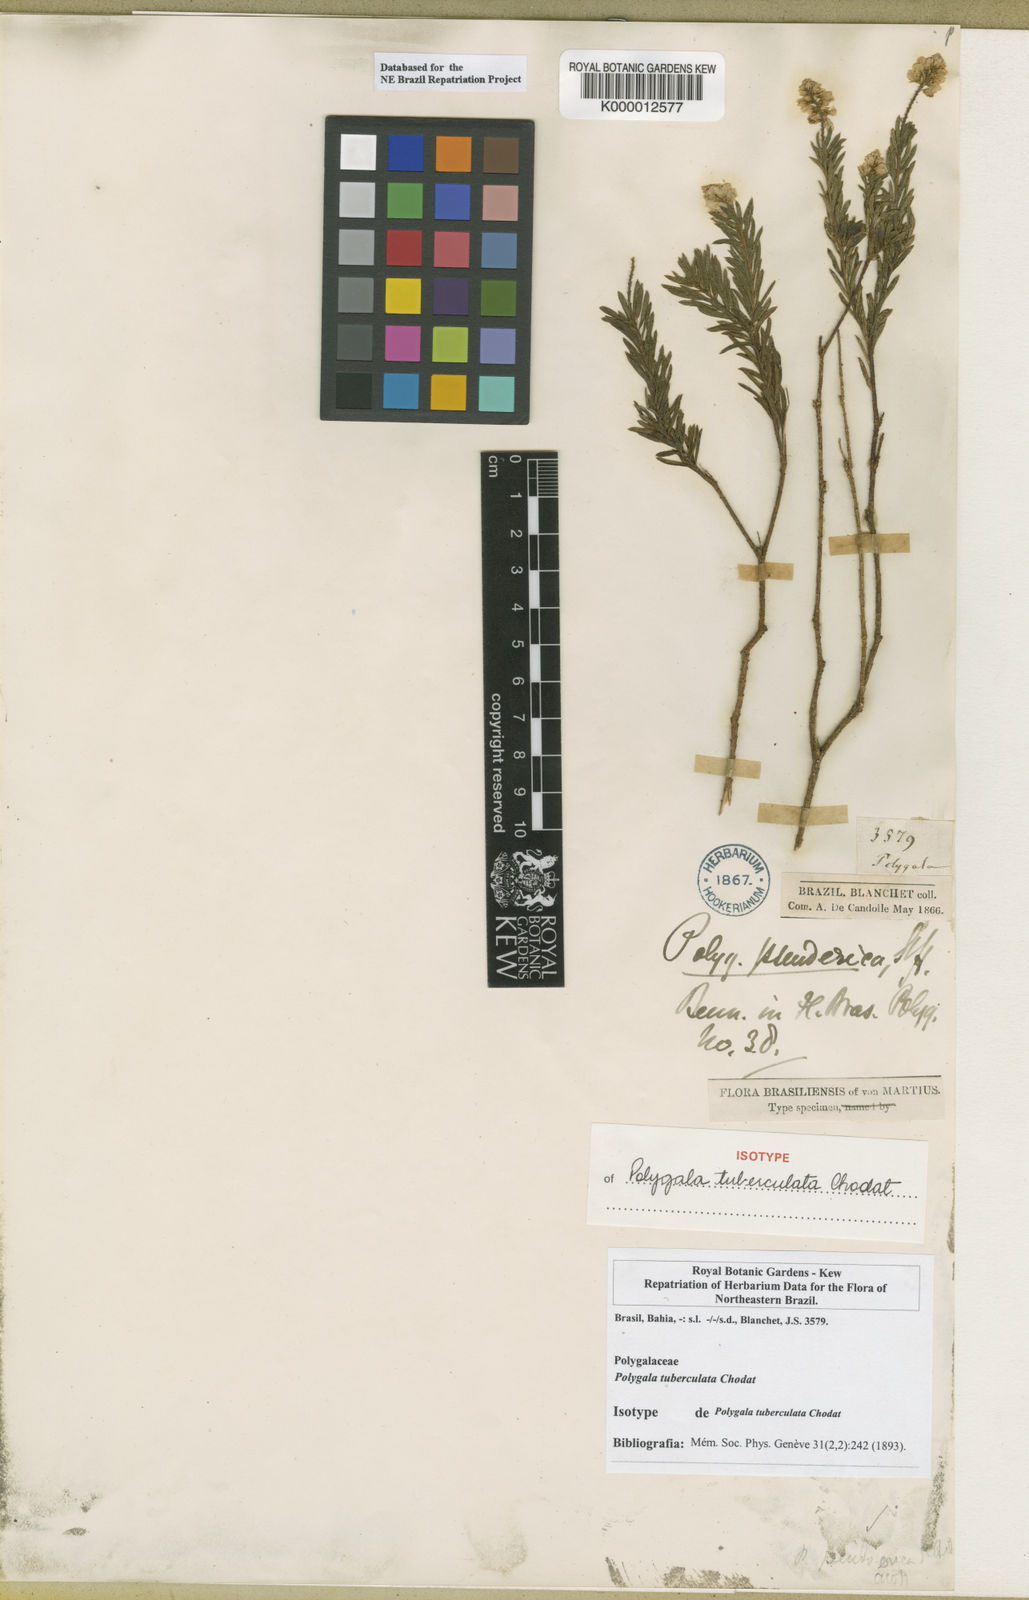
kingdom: Plantae
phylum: Tracheophyta
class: Magnoliopsida
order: Fabales
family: Polygalaceae
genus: Polygala
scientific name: Polygala tuberculata
